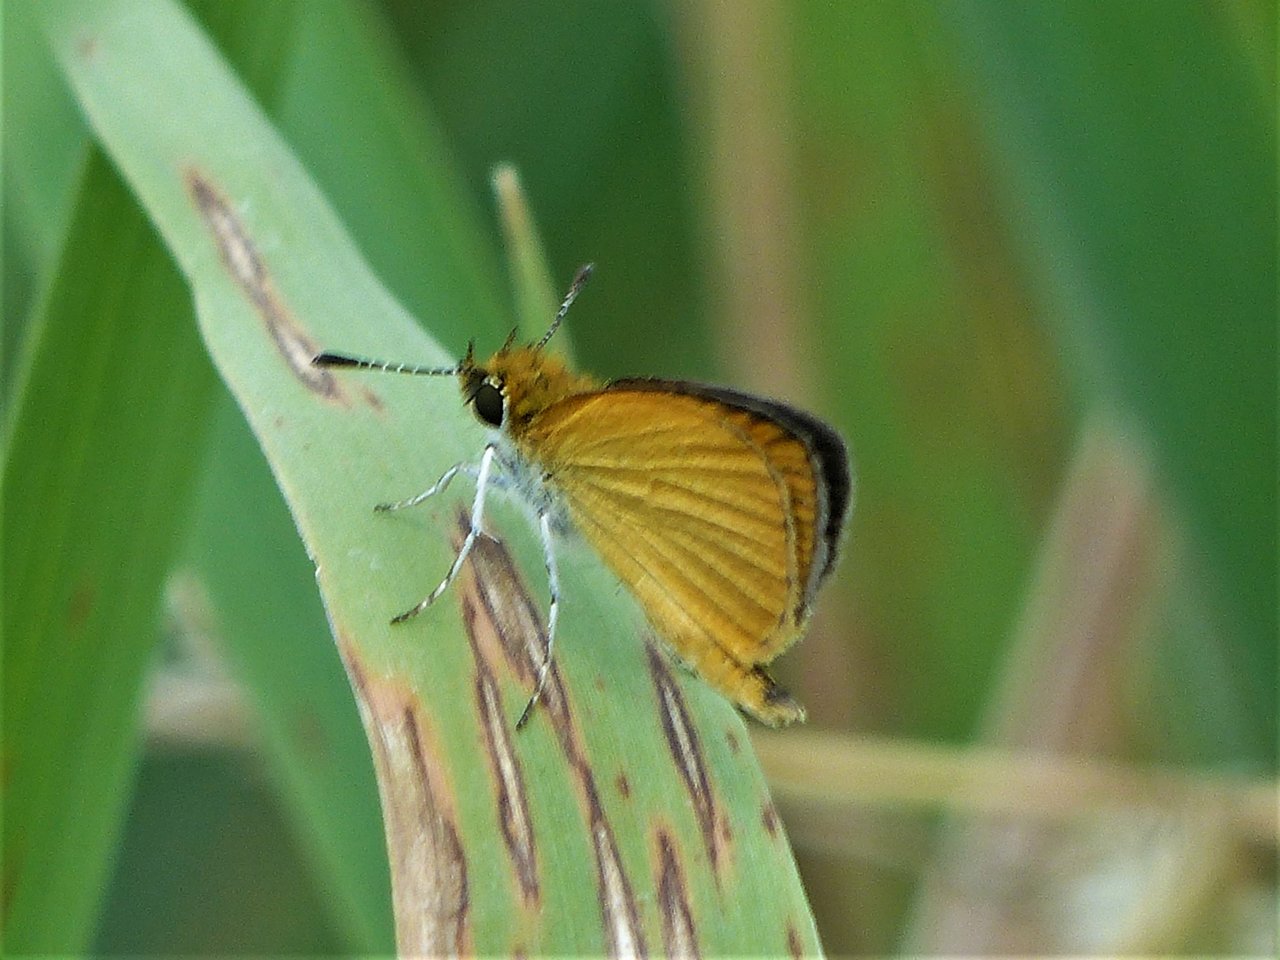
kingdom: Animalia
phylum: Arthropoda
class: Insecta
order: Lepidoptera
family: Hesperiidae
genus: Ancyloxypha
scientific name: Ancyloxypha numitor
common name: Least Skipper
